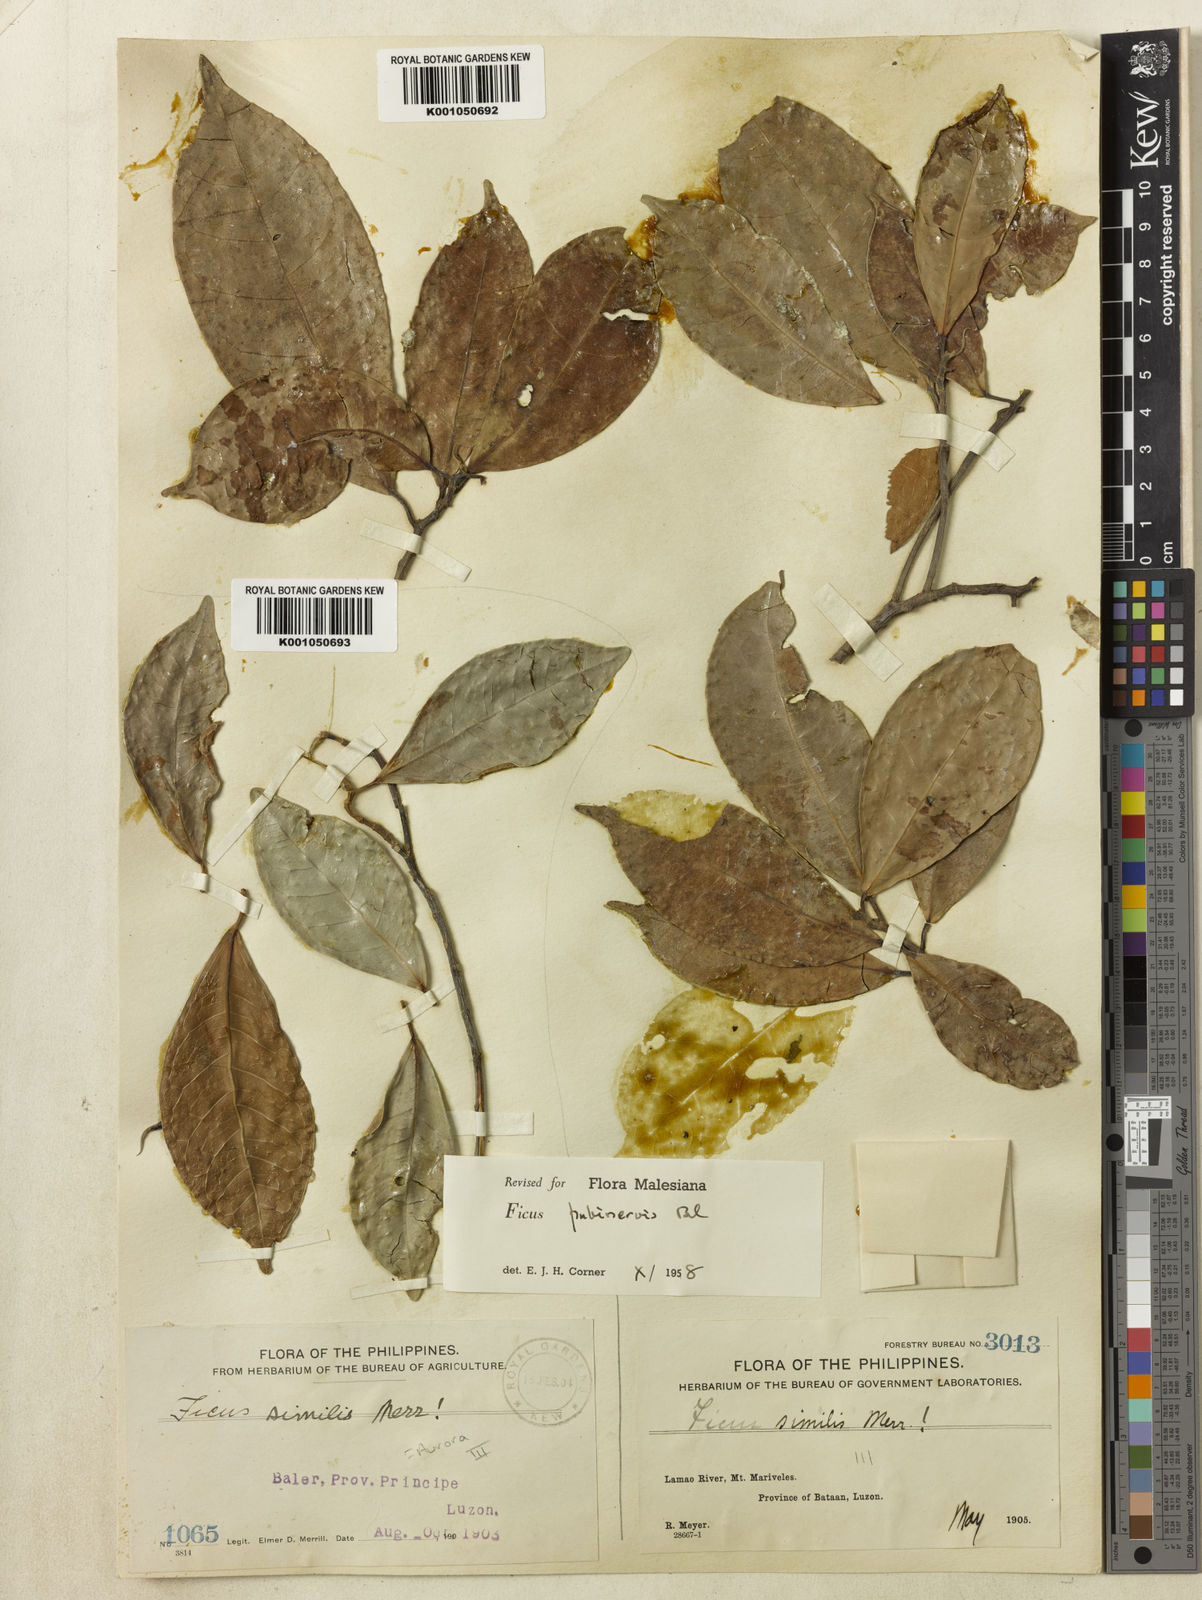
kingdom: Plantae
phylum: Tracheophyta
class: Magnoliopsida
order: Rosales
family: Moraceae
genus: Ficus
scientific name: Ficus nervosa
